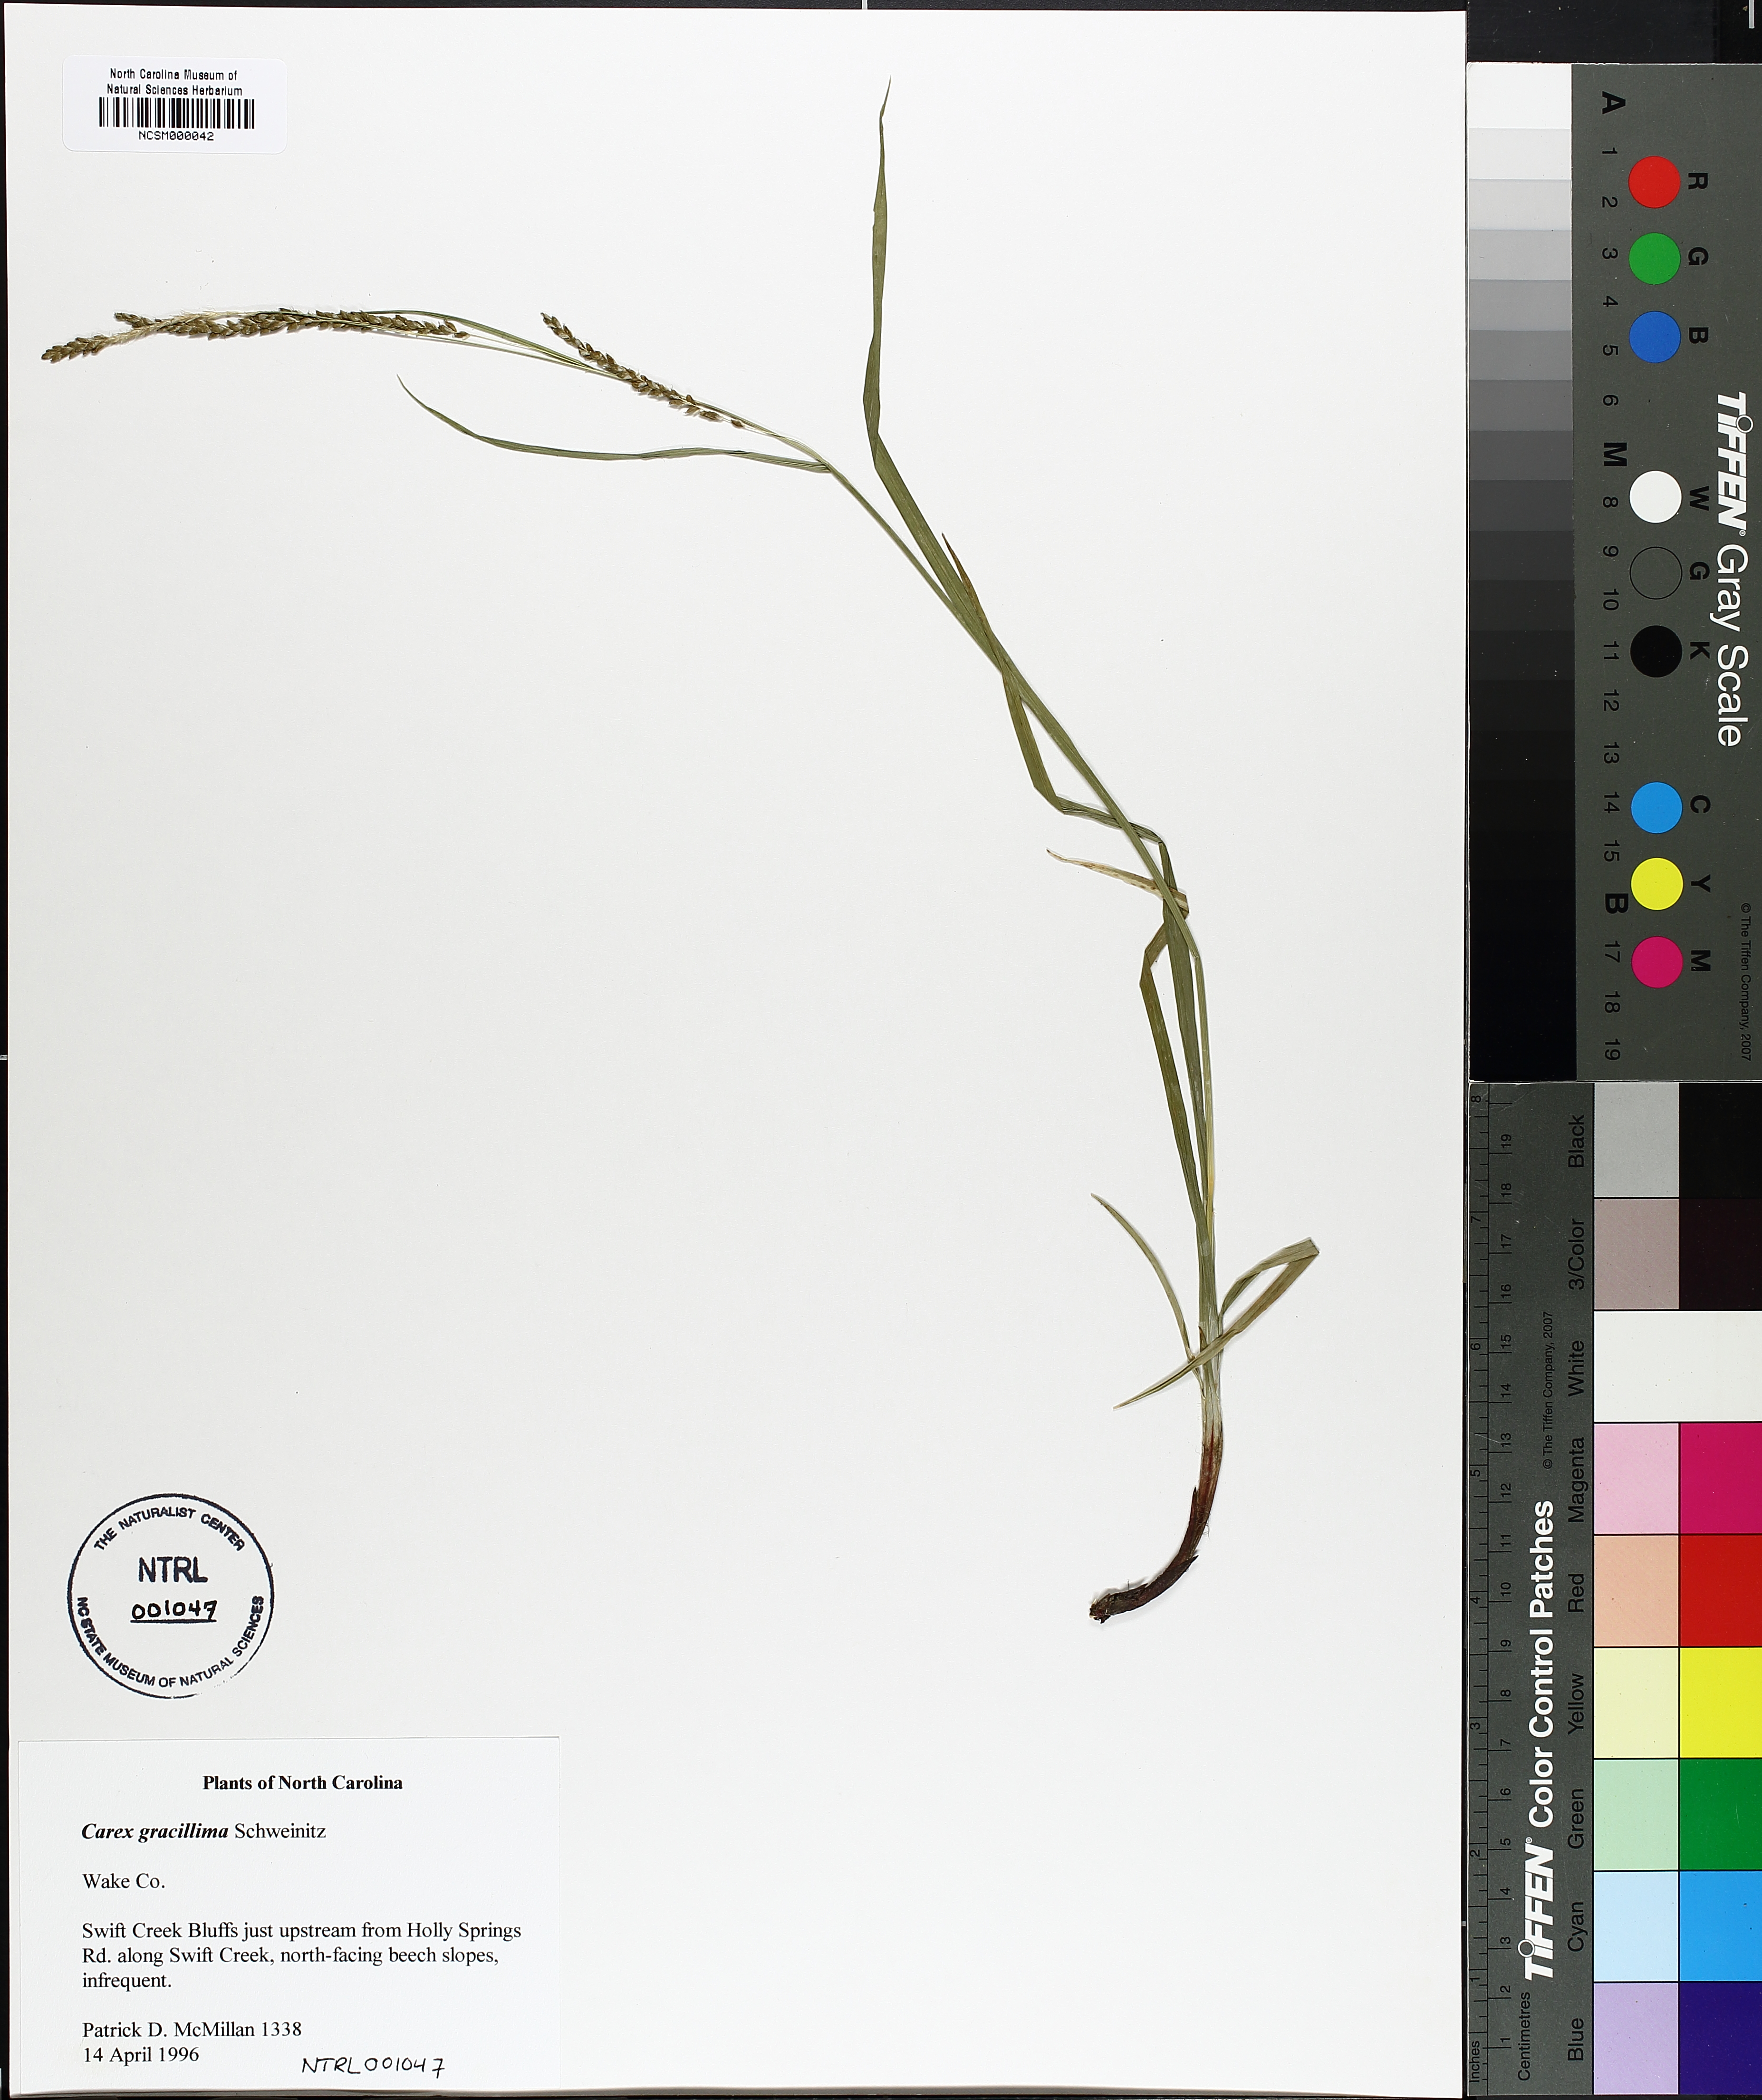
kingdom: Plantae
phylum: Tracheophyta
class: Liliopsida
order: Poales
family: Cyperaceae
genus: Carex
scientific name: Carex gracillima
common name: Graceful sedge
